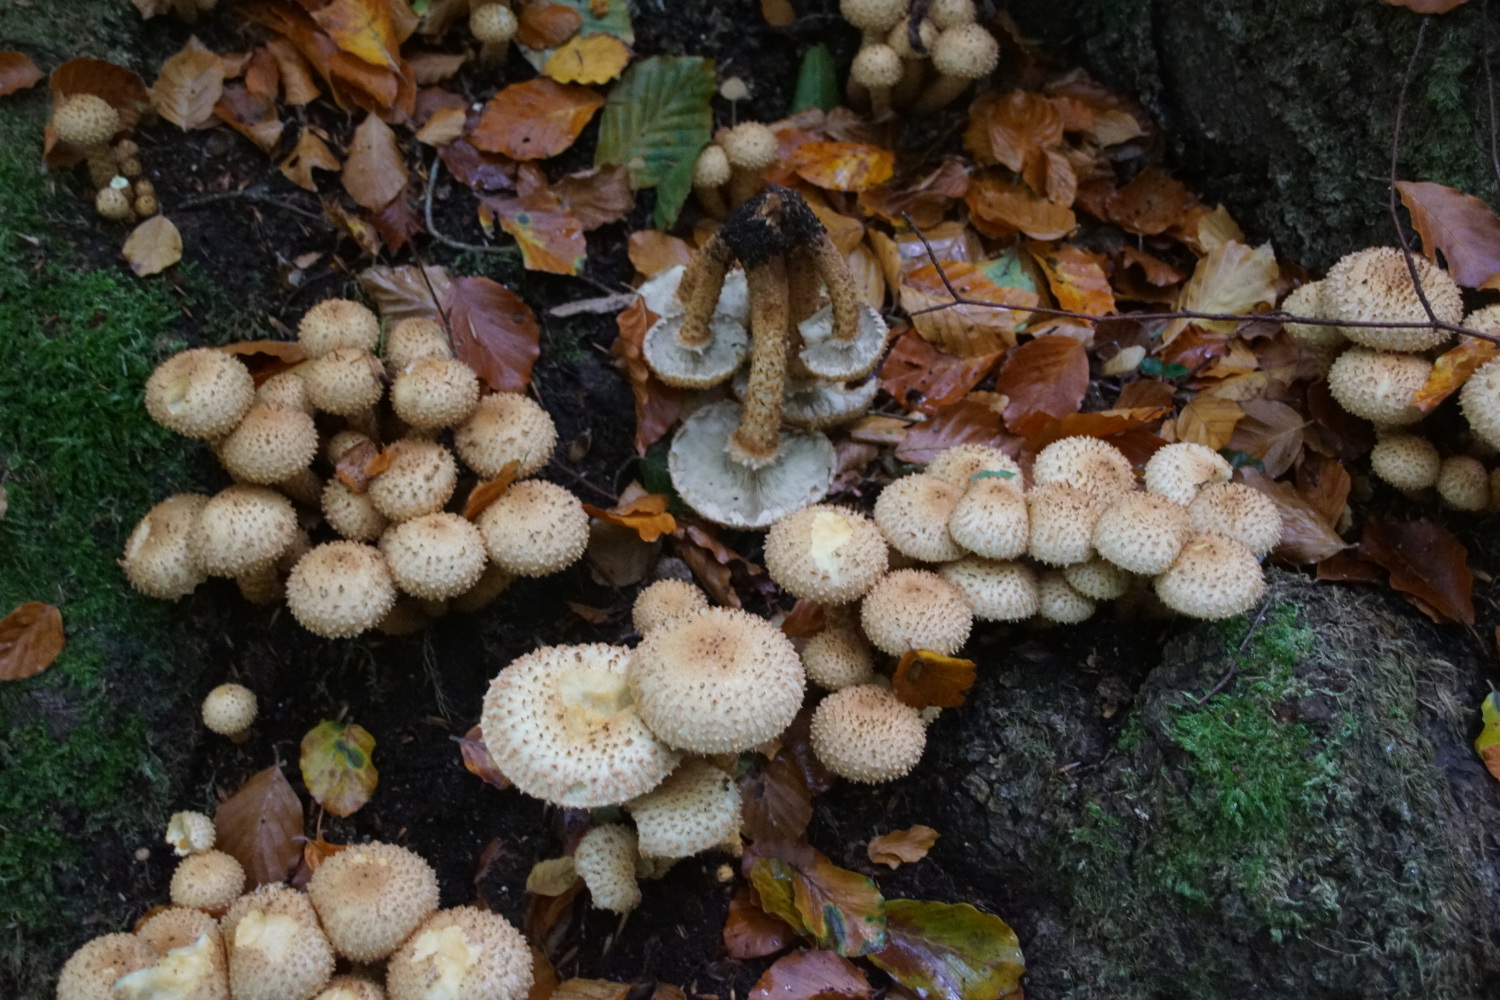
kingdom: Fungi
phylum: Basidiomycota
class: Agaricomycetes
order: Agaricales
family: Strophariaceae
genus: Pholiota
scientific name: Pholiota squarrosa
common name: krumskællet skælhat
